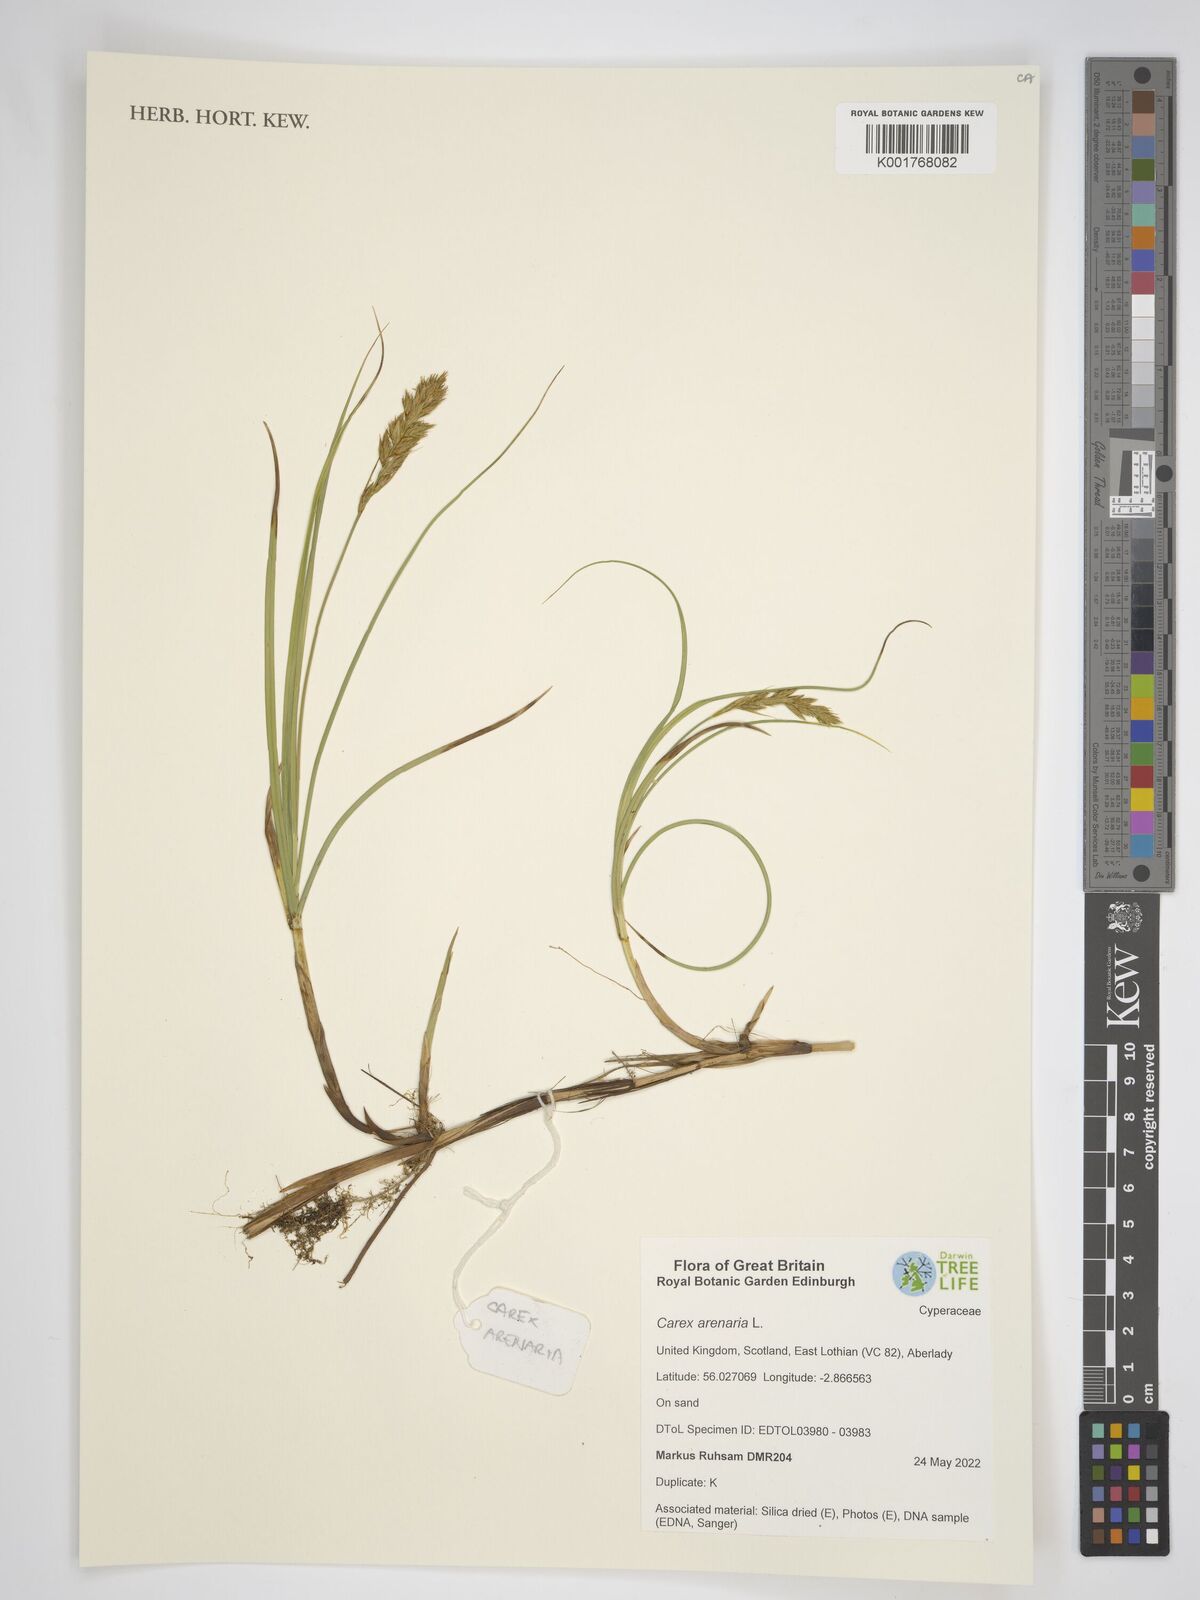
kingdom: Plantae
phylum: Tracheophyta
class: Liliopsida
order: Poales
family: Cyperaceae
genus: Carex
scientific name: Carex arenaria
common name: Sand sedge
